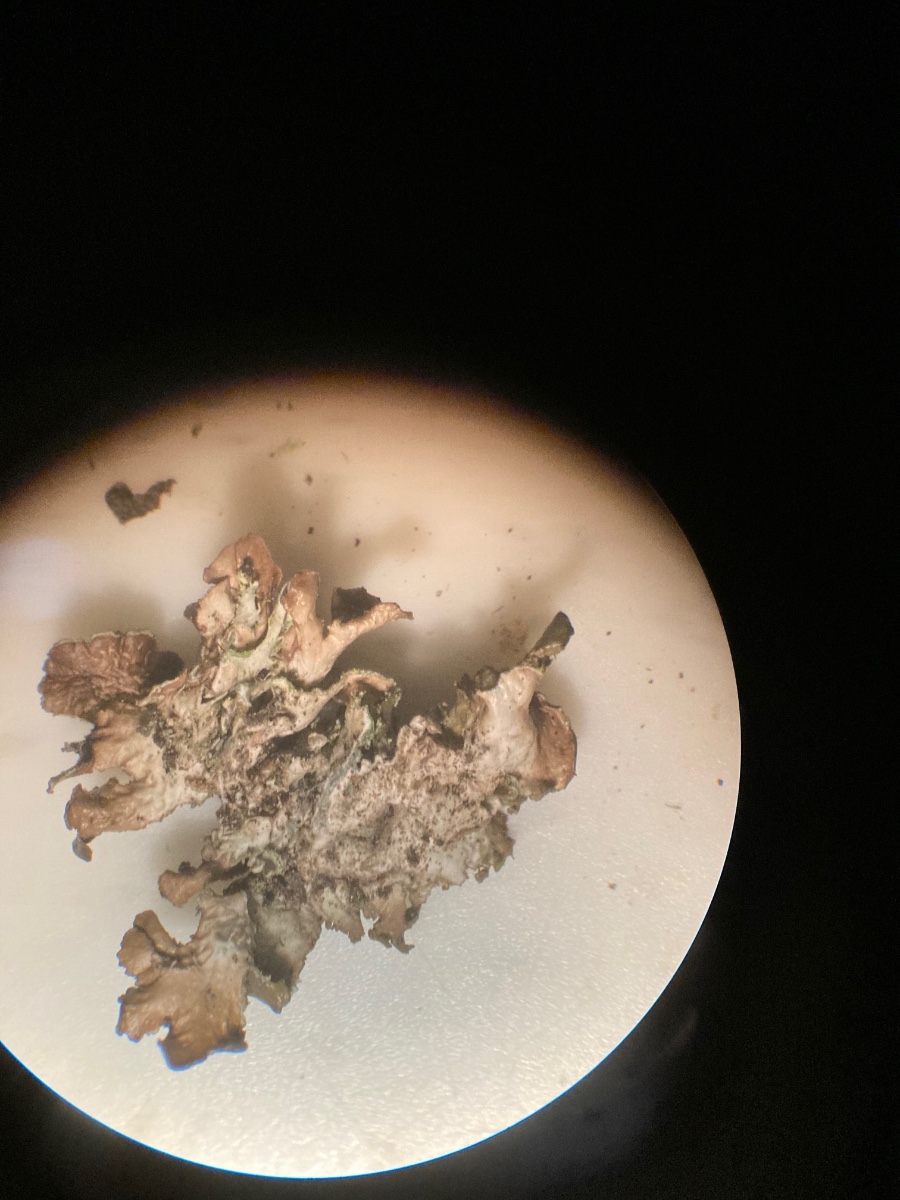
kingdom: Fungi
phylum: Ascomycota
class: Lecanoromycetes
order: Lecanorales
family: Parmeliaceae
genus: Nephromopsis
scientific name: Nephromopsis chlorophylla
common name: olivenbrun kruslav
